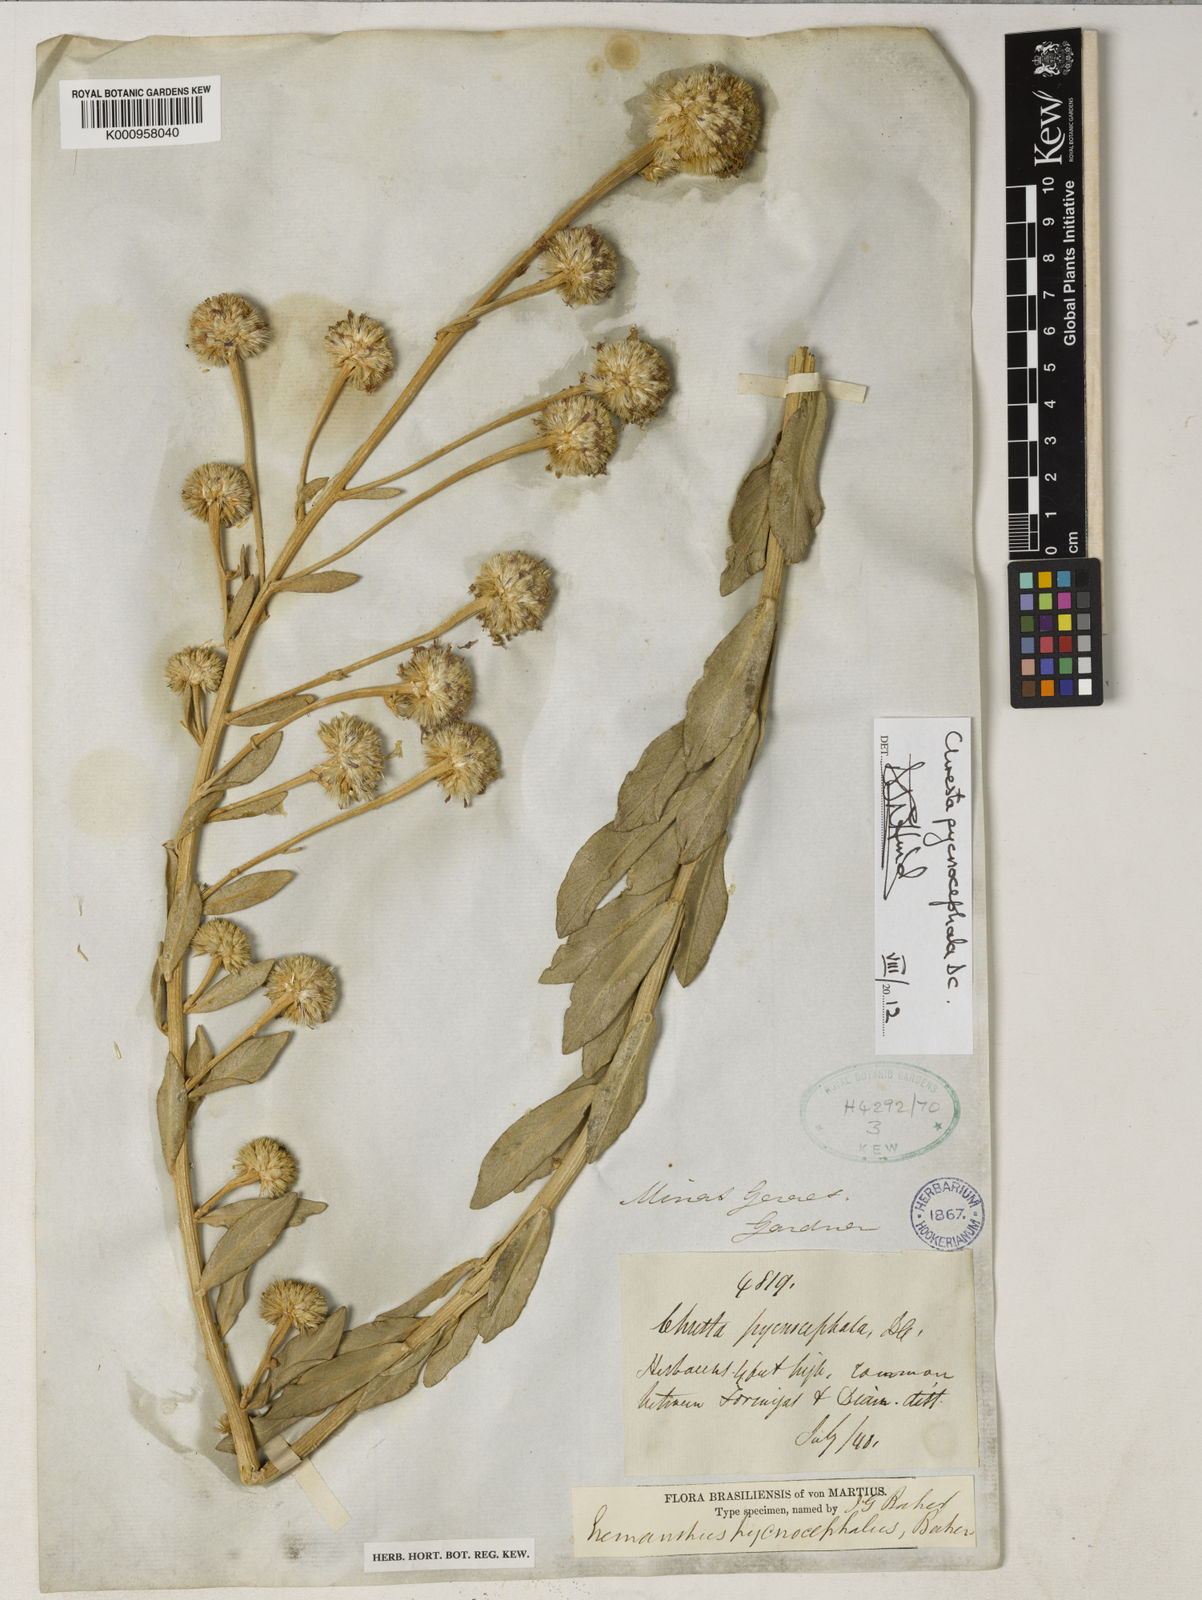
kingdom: Plantae
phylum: Tracheophyta
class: Magnoliopsida
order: Asterales
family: Asteraceae
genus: Chresta
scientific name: Chresta pycnocephala
